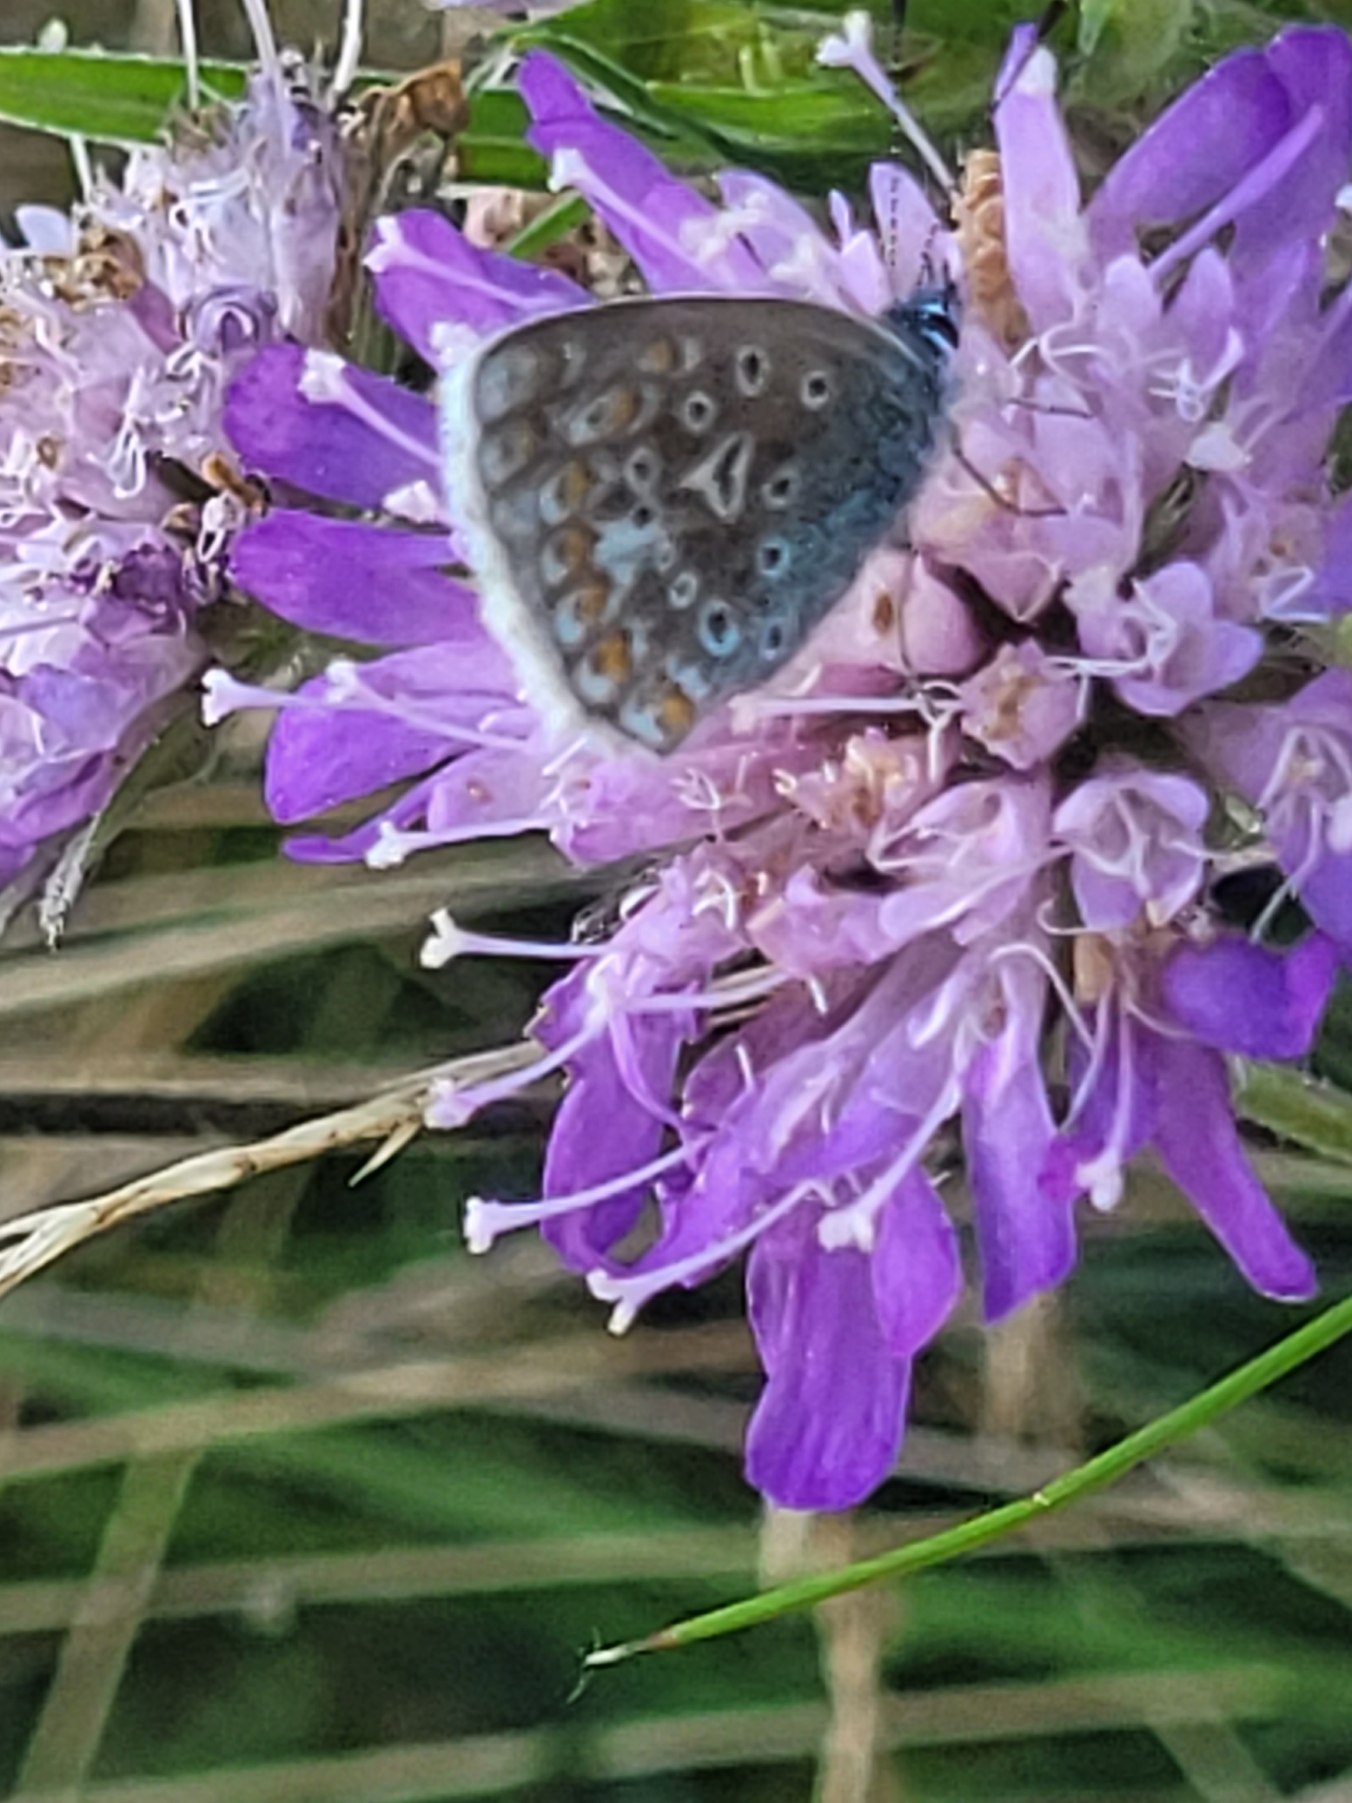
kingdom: Animalia
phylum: Arthropoda
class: Insecta
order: Lepidoptera
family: Lycaenidae
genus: Polyommatus
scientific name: Polyommatus icarus
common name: Almindelig blåfugl
